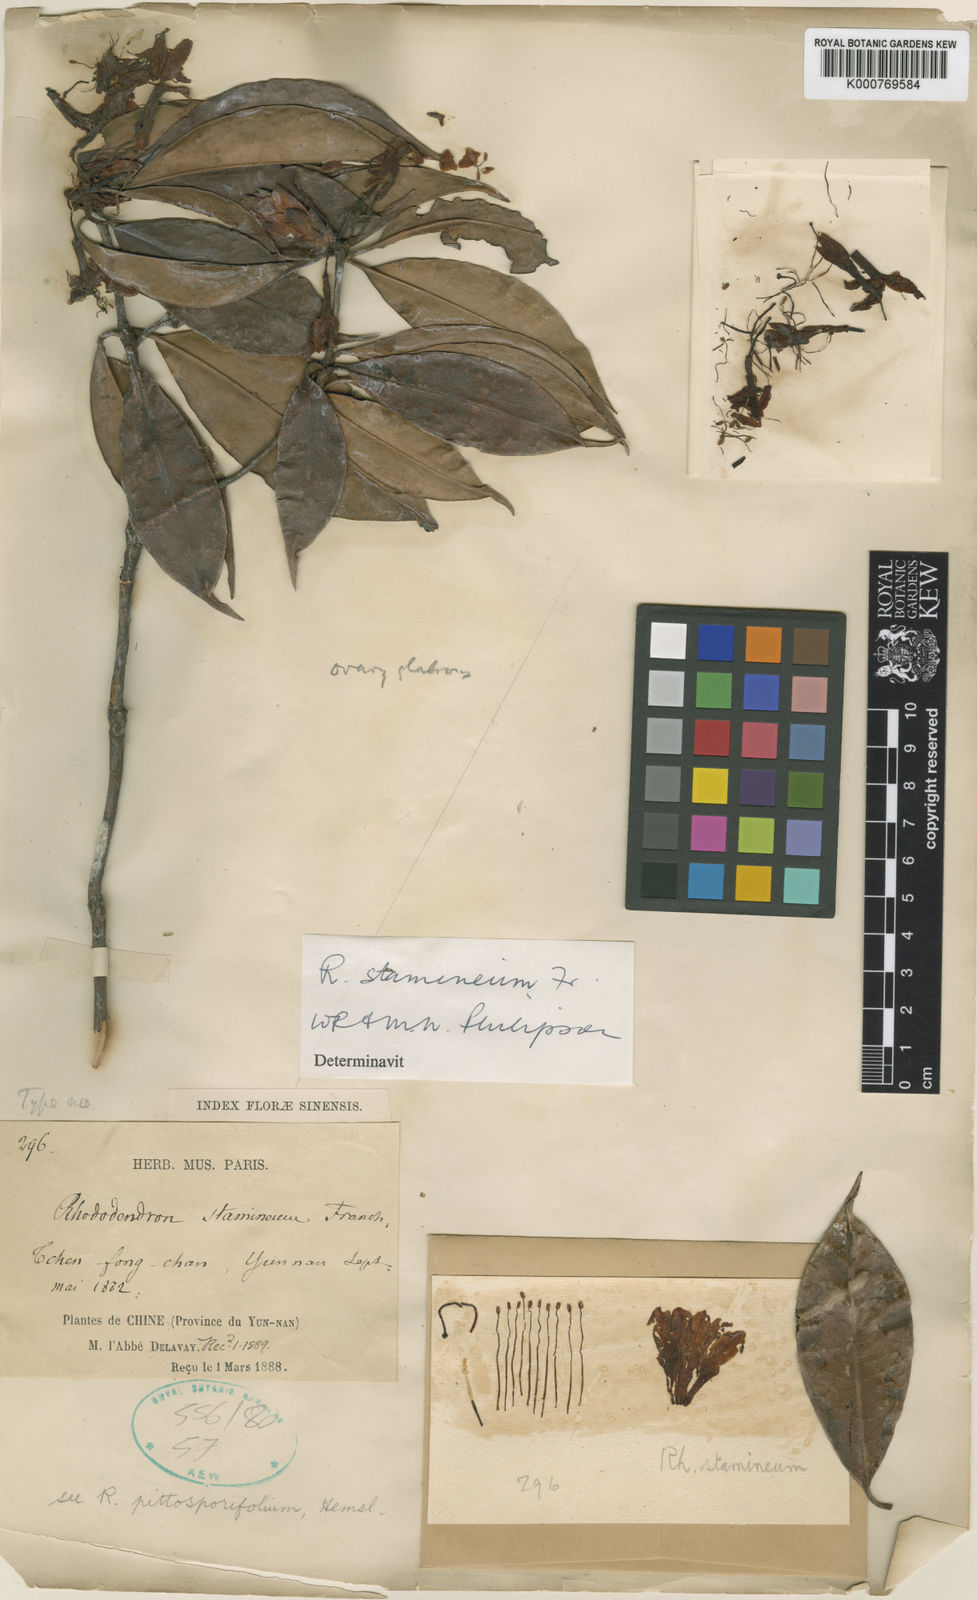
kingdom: Plantae
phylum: Tracheophyta
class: Magnoliopsida
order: Ericales
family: Ericaceae
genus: Rhododendron
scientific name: Rhododendron stamineum
